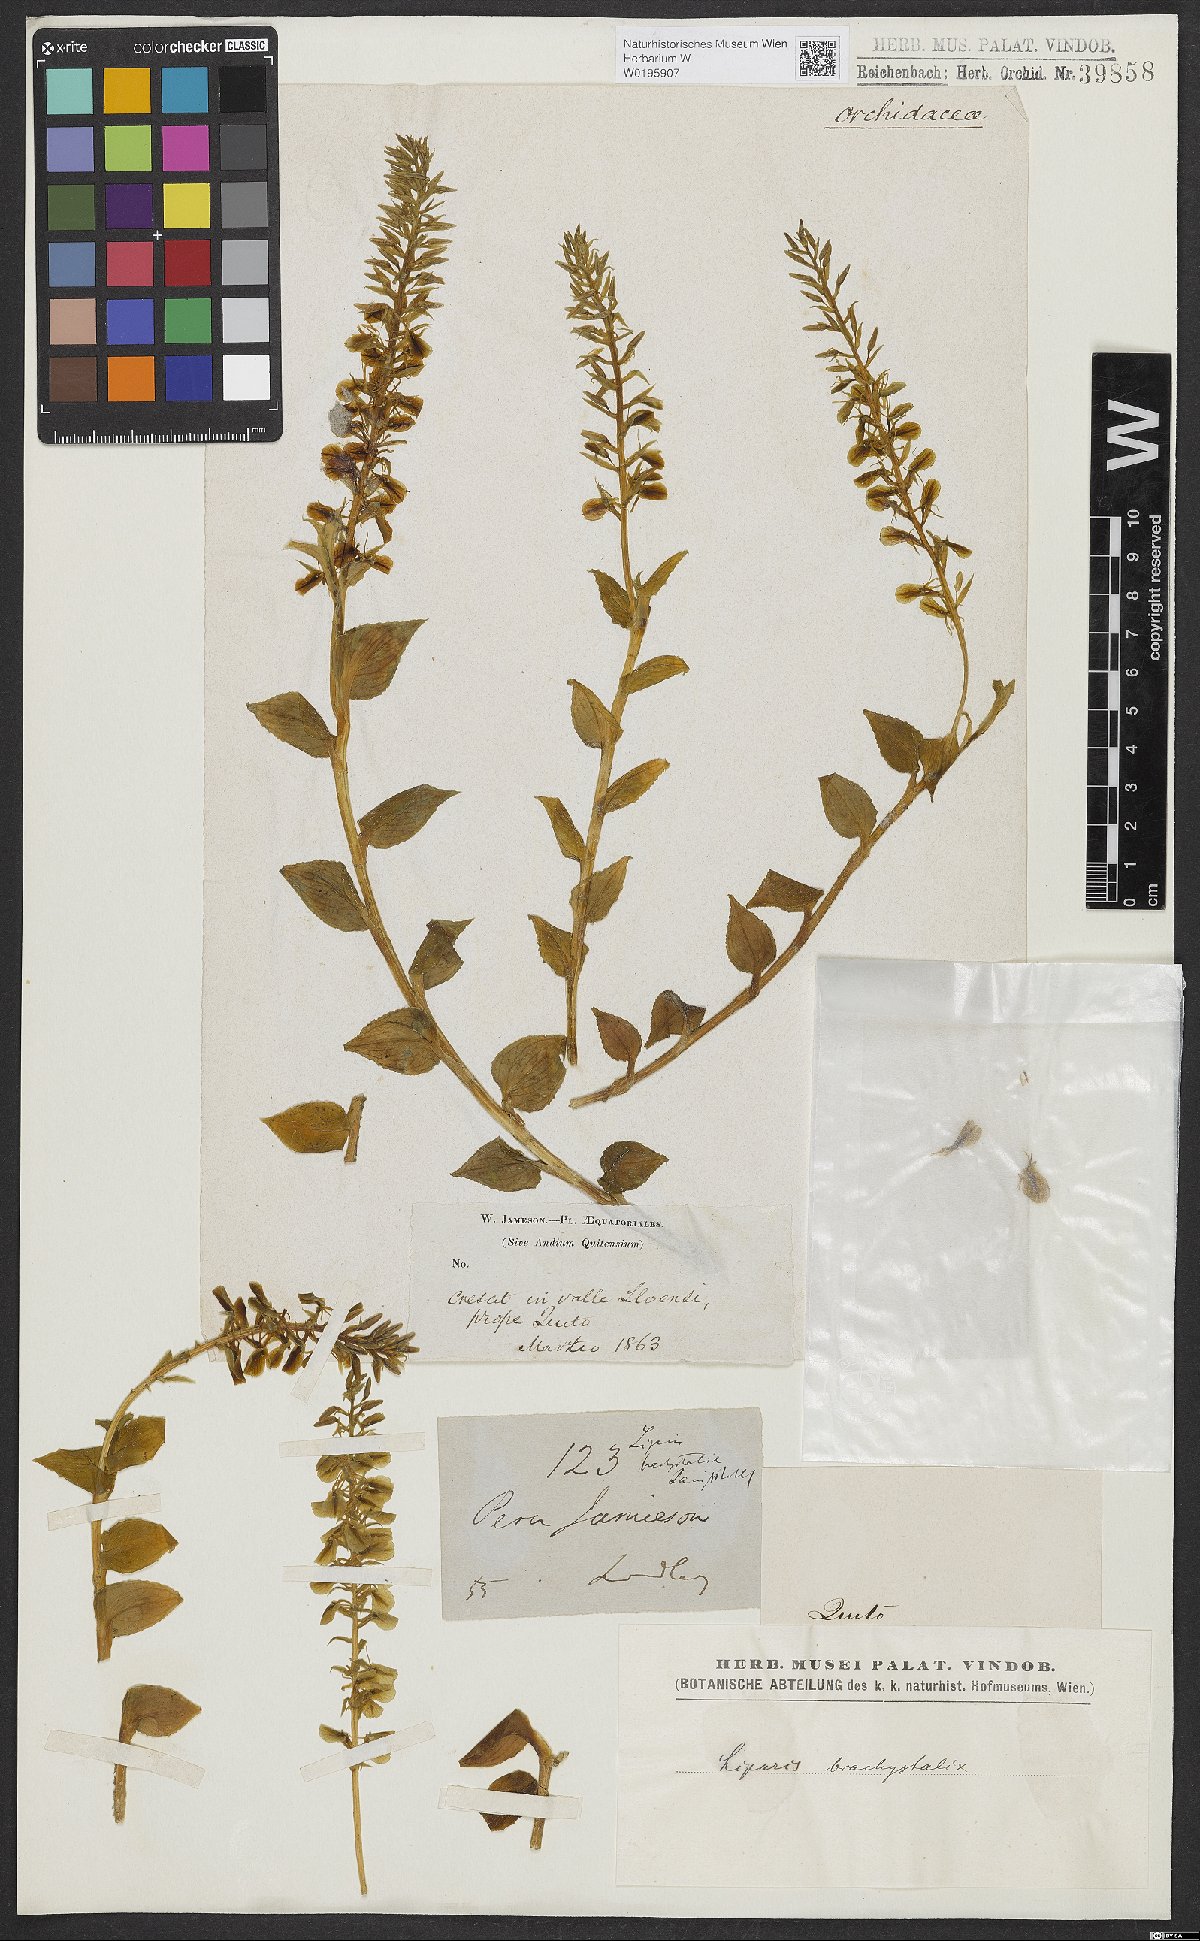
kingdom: Plantae
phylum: Tracheophyta
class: Liliopsida
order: Asparagales
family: Orchidaceae
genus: Liparis
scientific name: Liparis brachystalix
